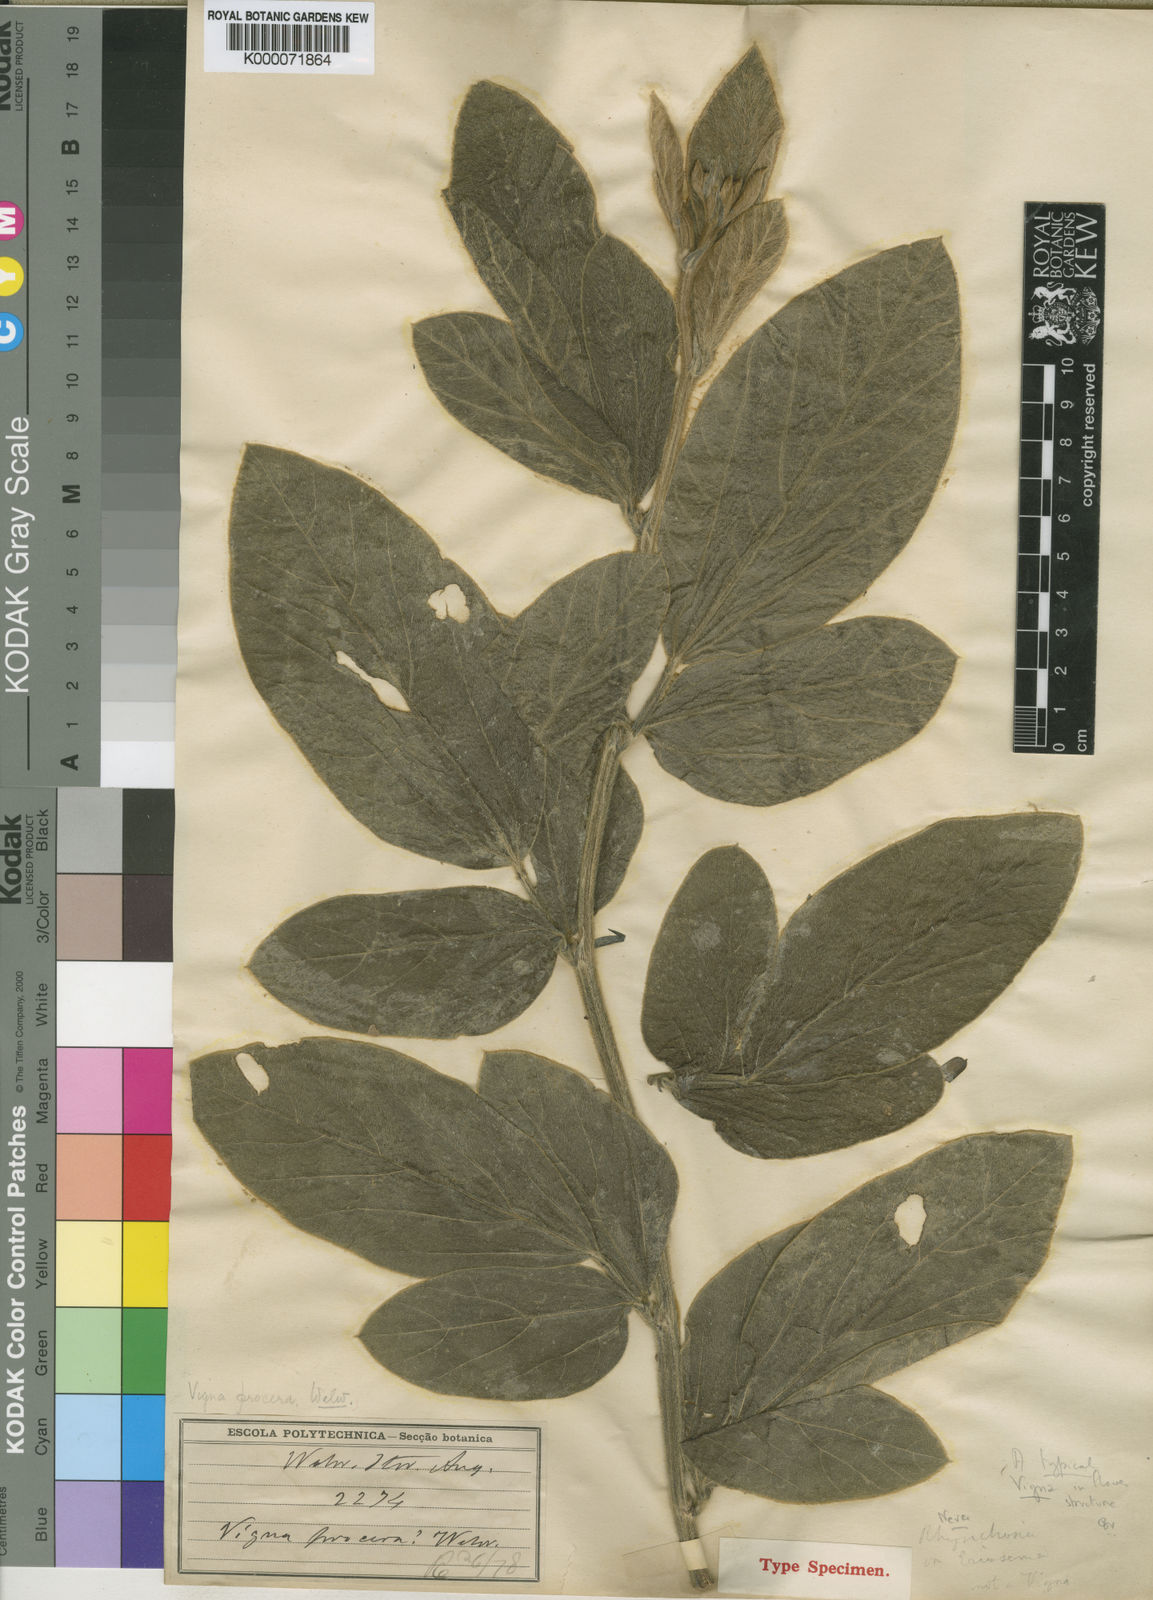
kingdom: Plantae
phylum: Tracheophyta
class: Magnoliopsida
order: Fabales
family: Fabaceae
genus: Vigna
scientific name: Vigna procera
